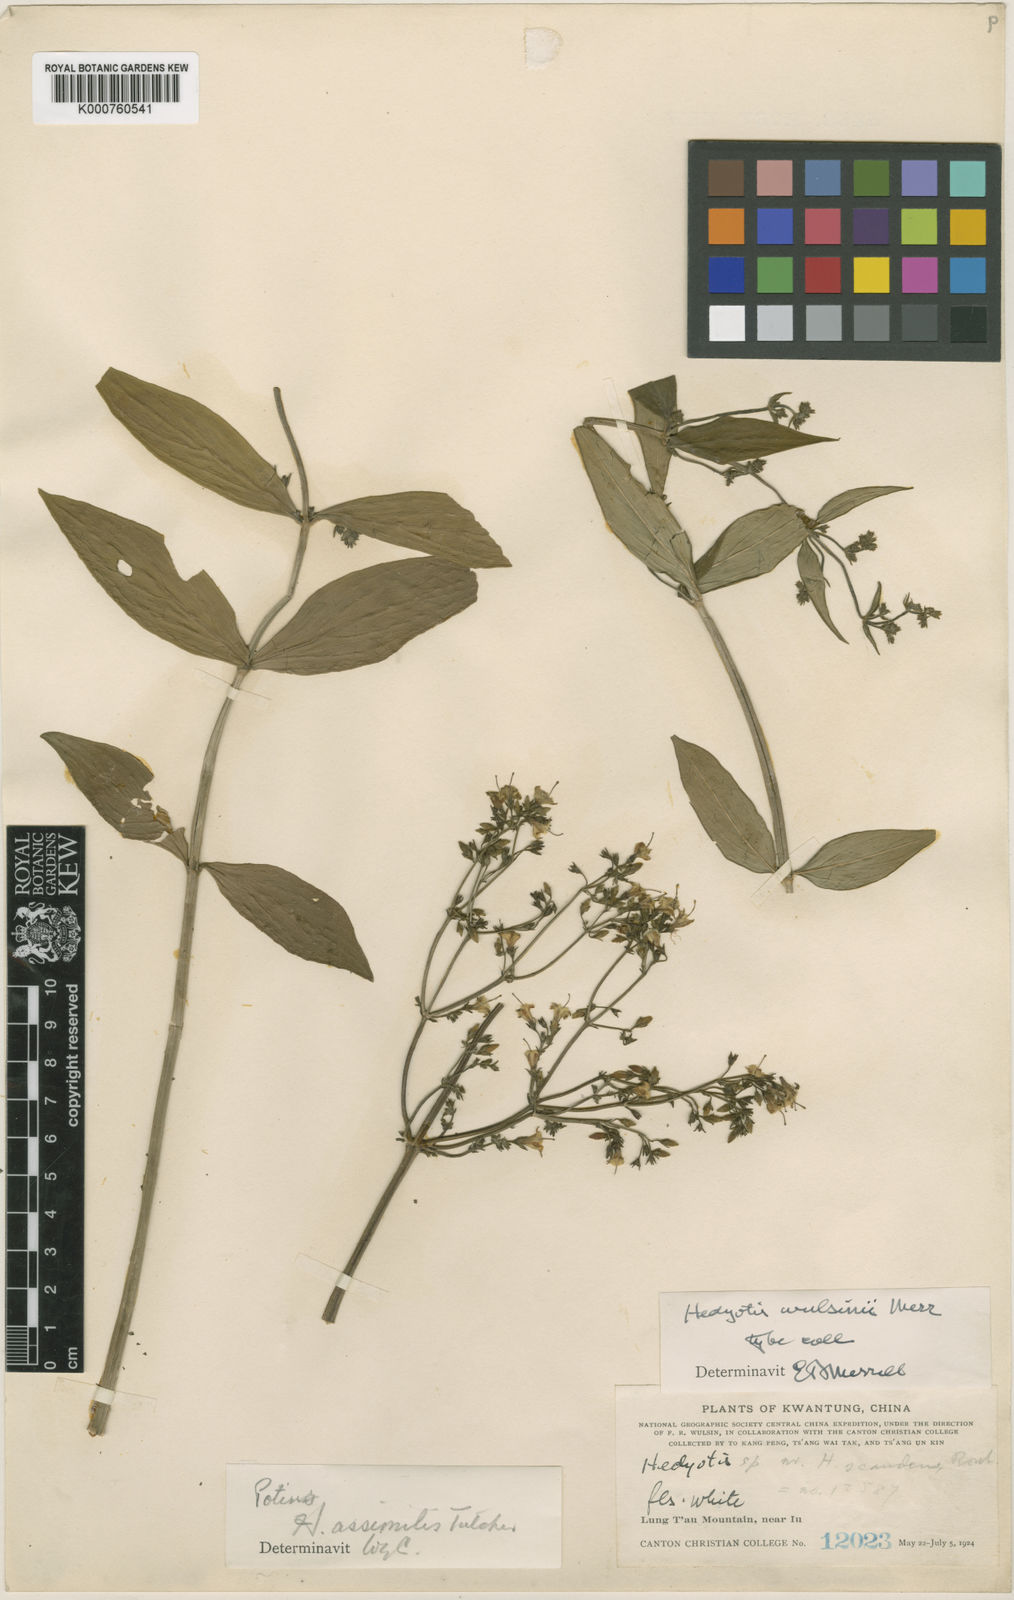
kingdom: Plantae
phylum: Tracheophyta
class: Magnoliopsida
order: Gentianales
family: Rubiaceae
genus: Hedyotis
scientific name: Hedyotis matthewii
